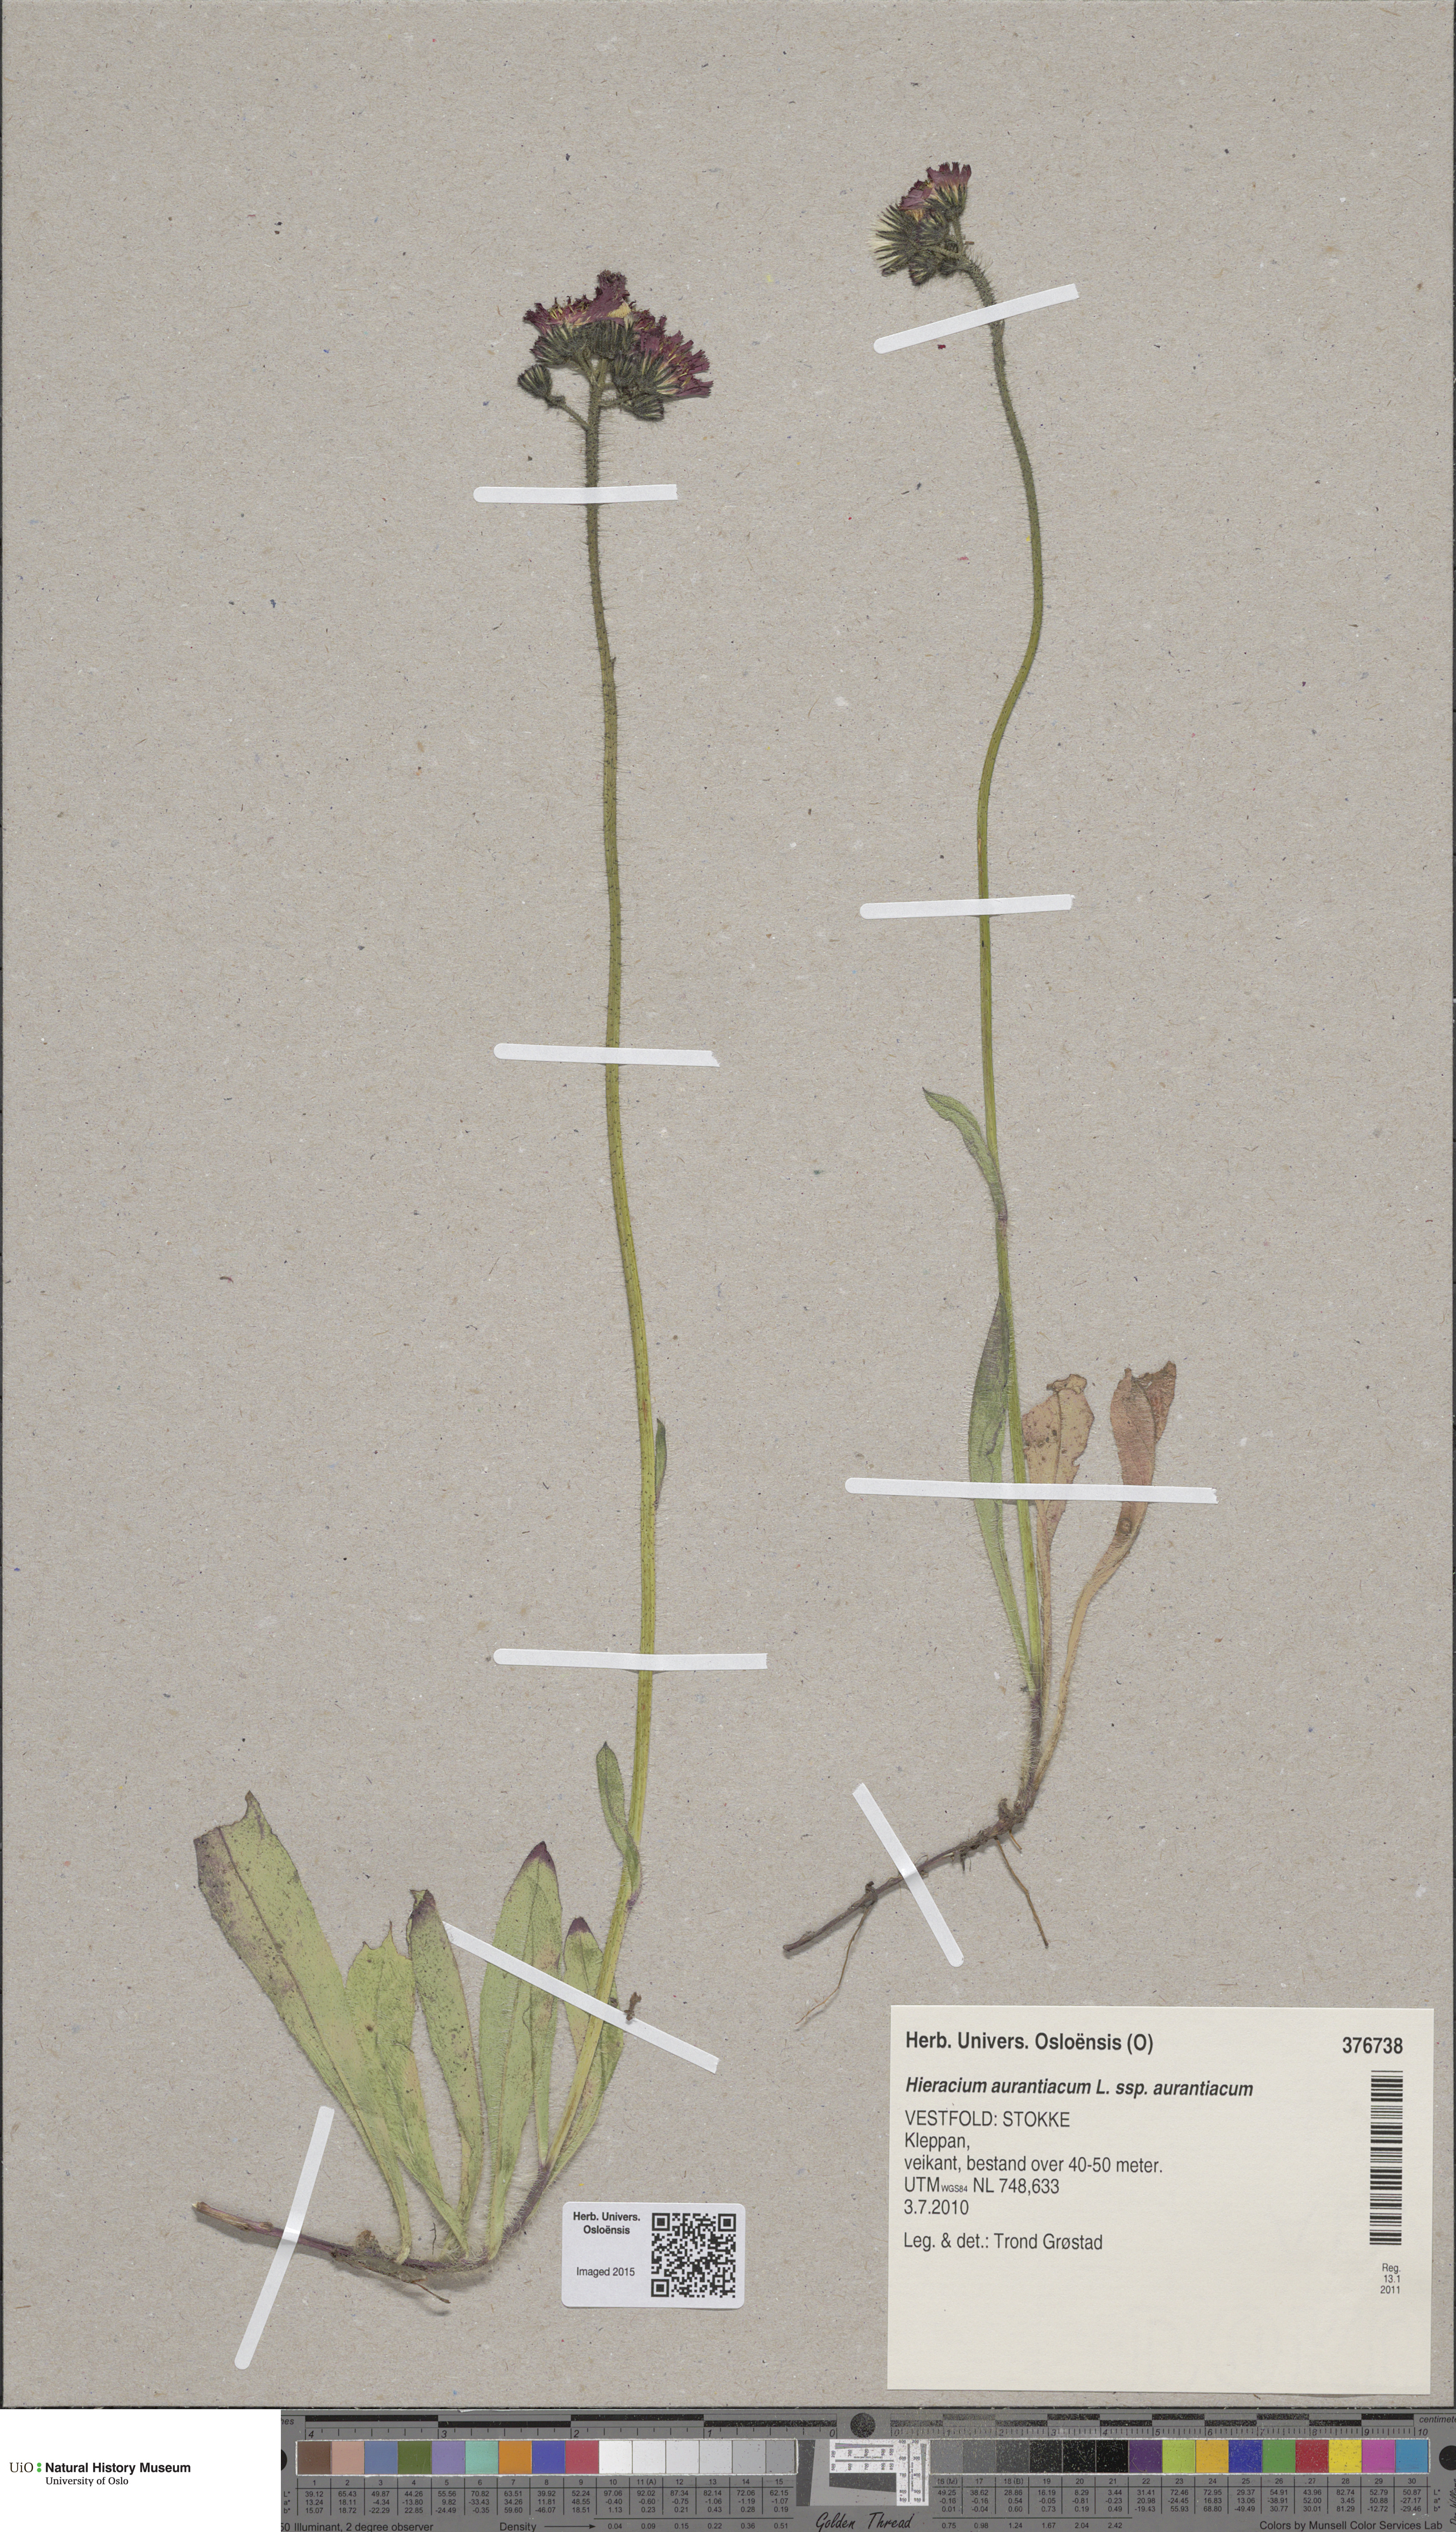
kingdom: Plantae
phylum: Tracheophyta
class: Magnoliopsida
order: Asterales
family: Asteraceae
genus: Pilosella
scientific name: Pilosella aurantiaca
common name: Fox-and-cubs
